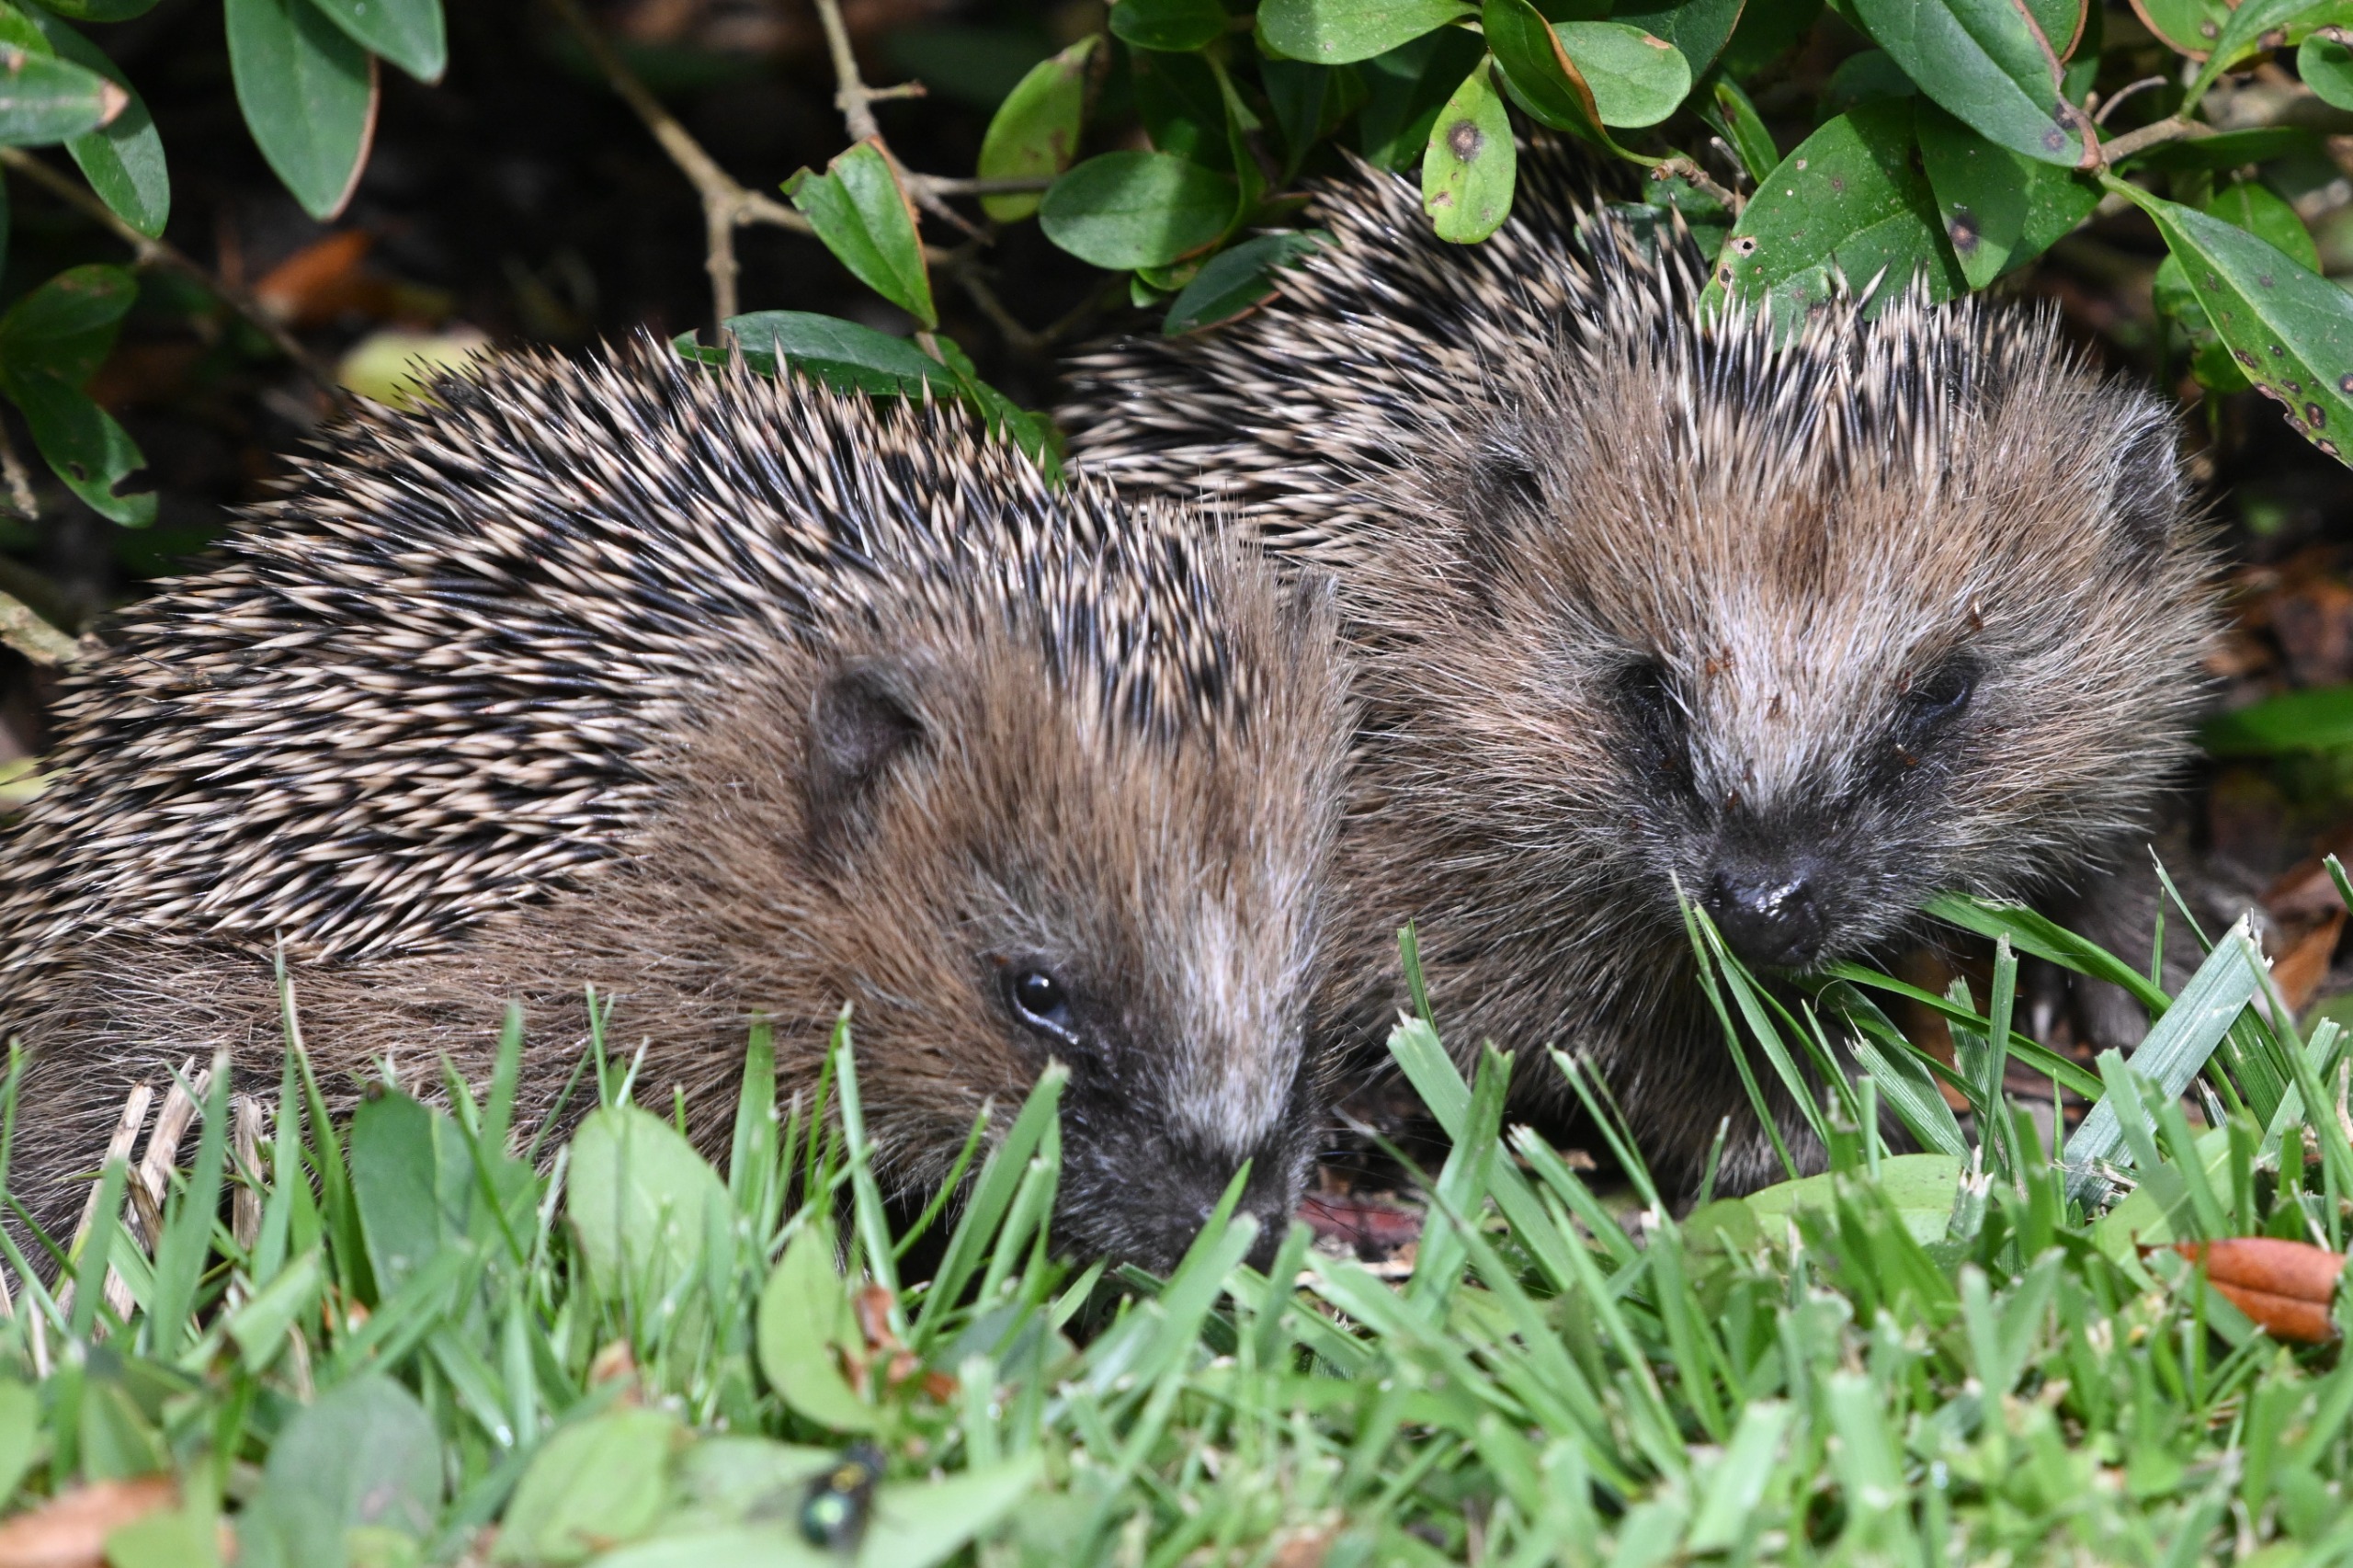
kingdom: Animalia
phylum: Chordata
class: Mammalia
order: Erinaceomorpha
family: Erinaceidae
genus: Erinaceus
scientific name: Erinaceus europaeus
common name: Pindsvin
